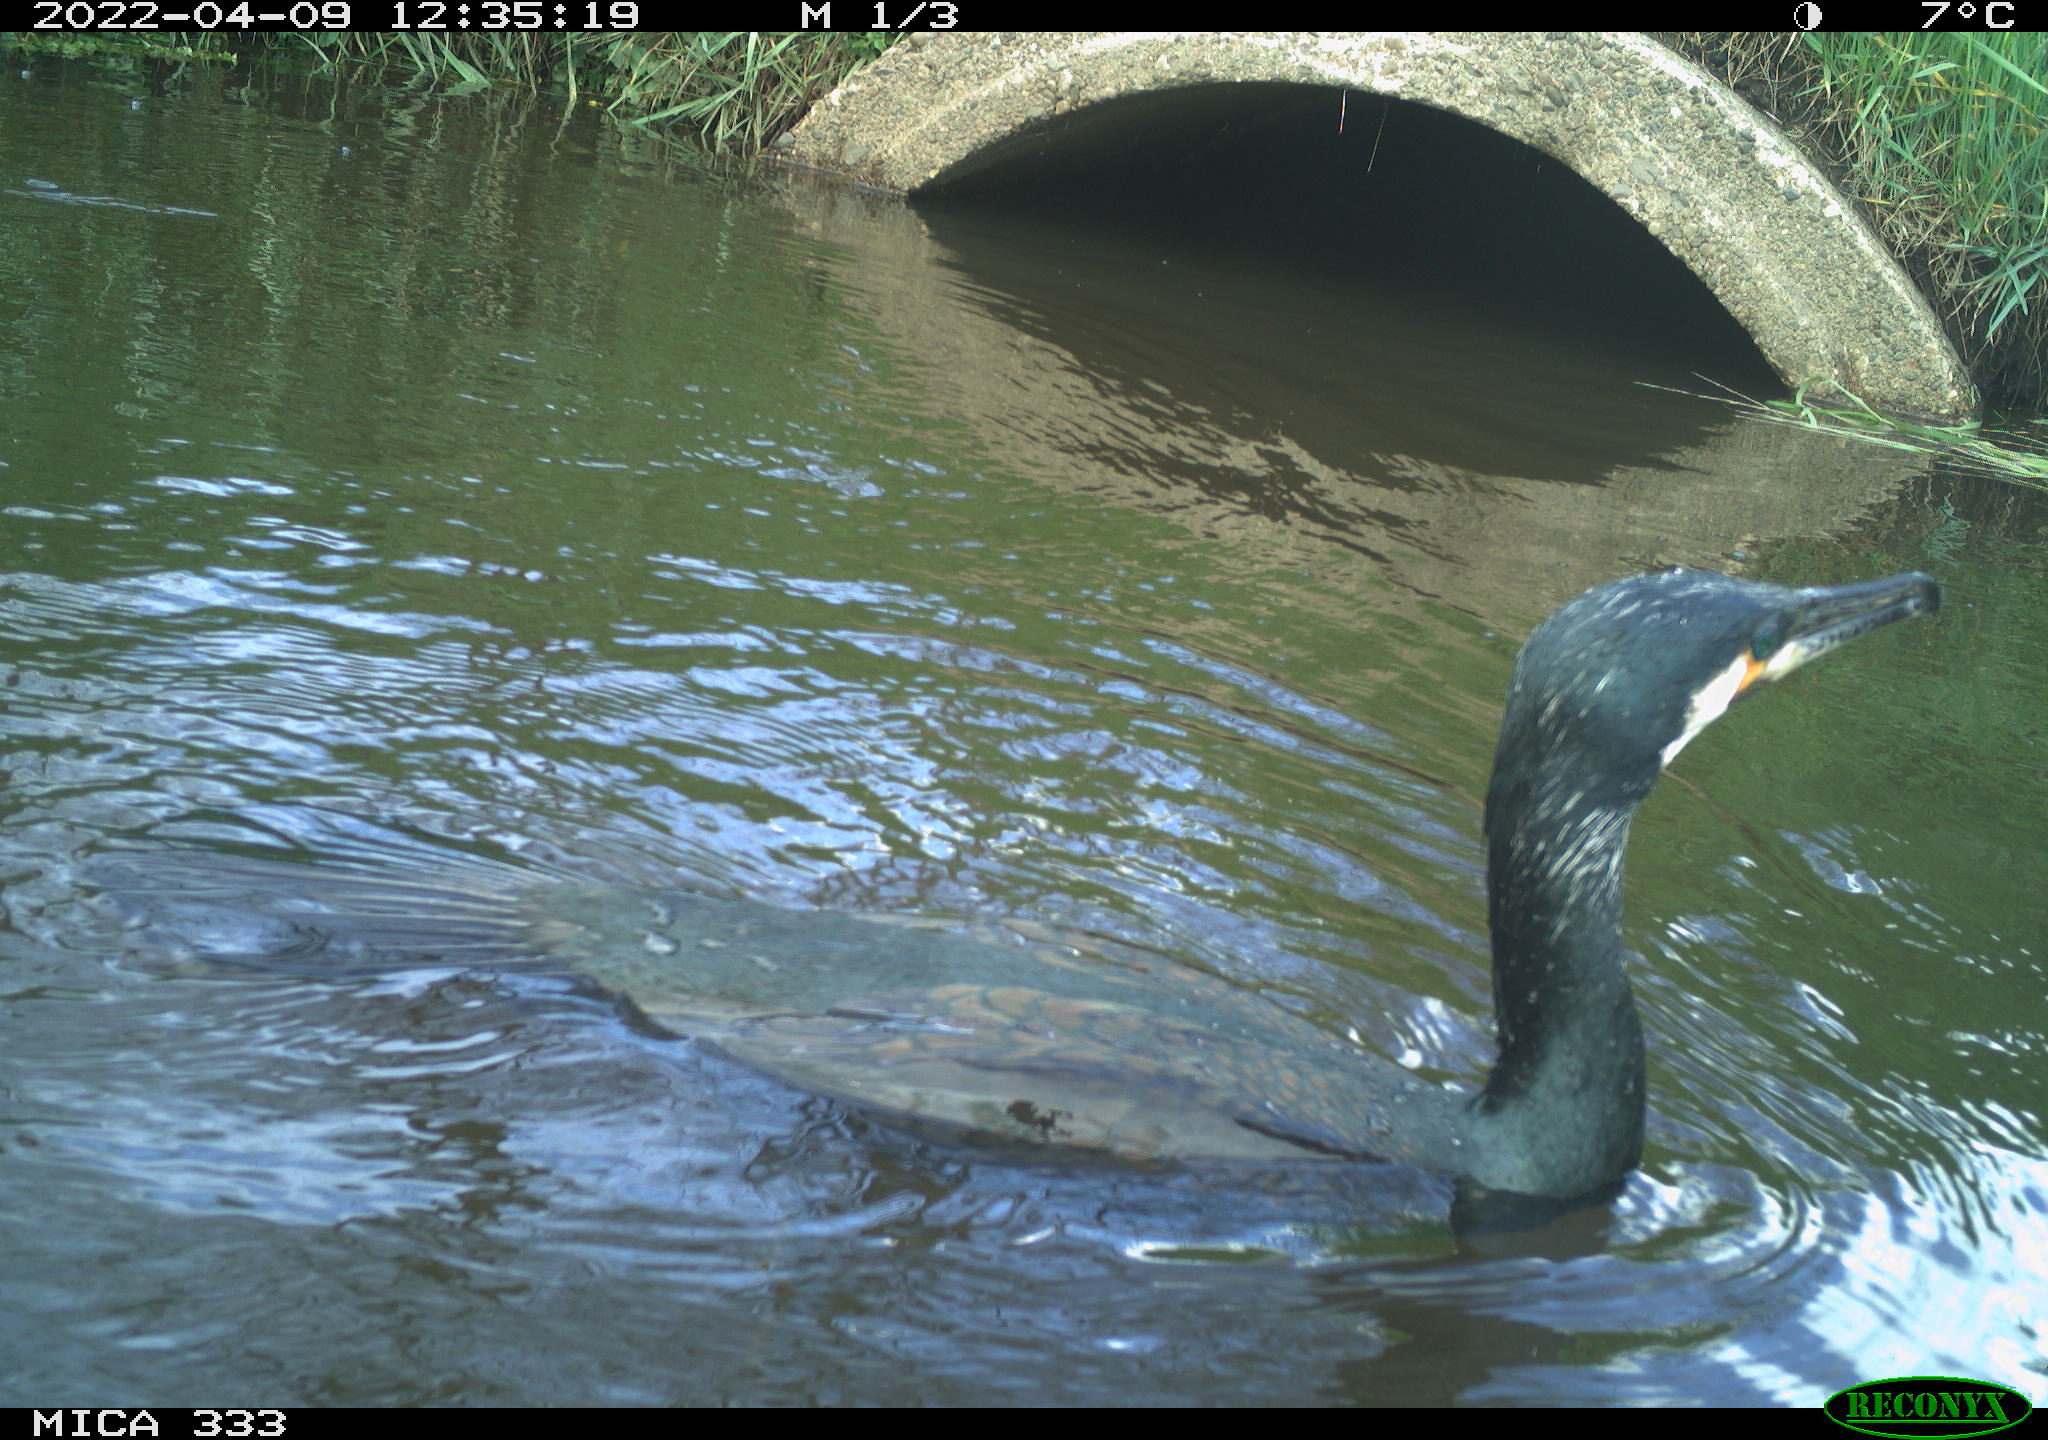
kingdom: Animalia
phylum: Chordata
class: Aves
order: Suliformes
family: Phalacrocoracidae
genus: Phalacrocorax
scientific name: Phalacrocorax carbo
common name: Great cormorant
